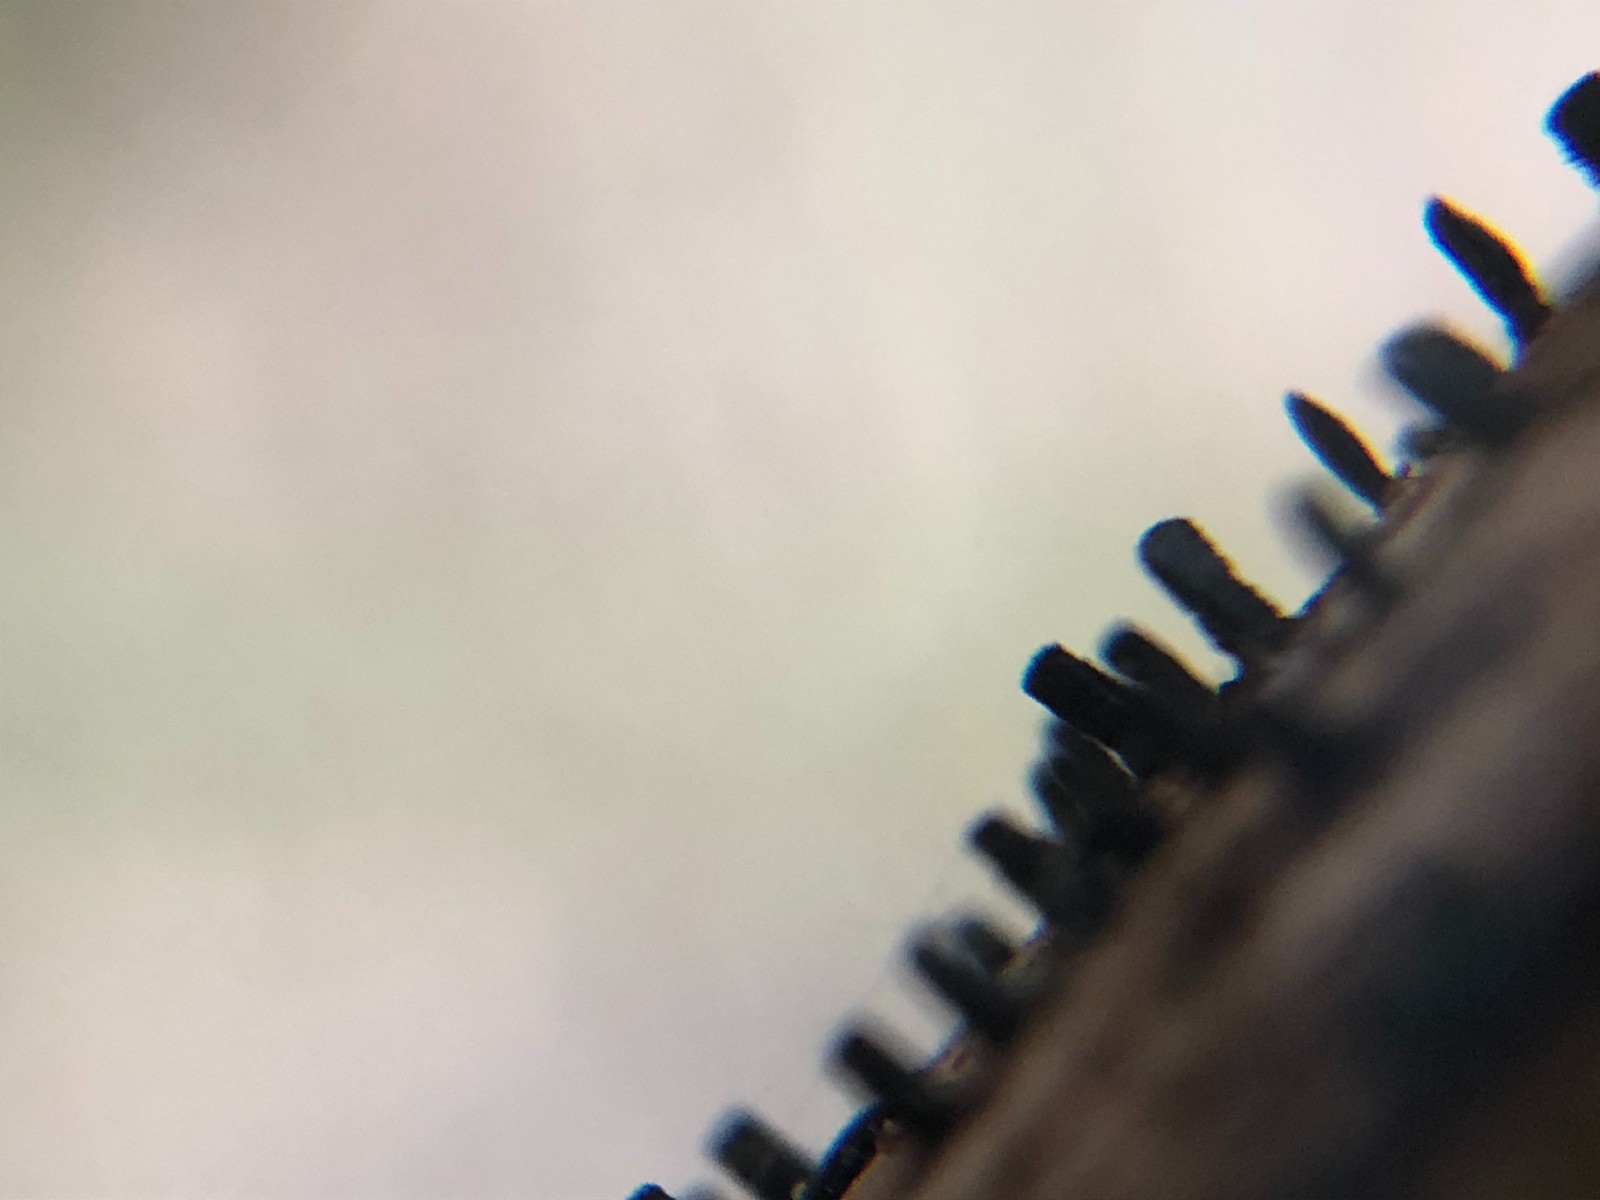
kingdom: Fungi
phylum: Ascomycota
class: Eurotiomycetes
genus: Glyphium
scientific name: Glyphium elatum
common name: kuløkse
